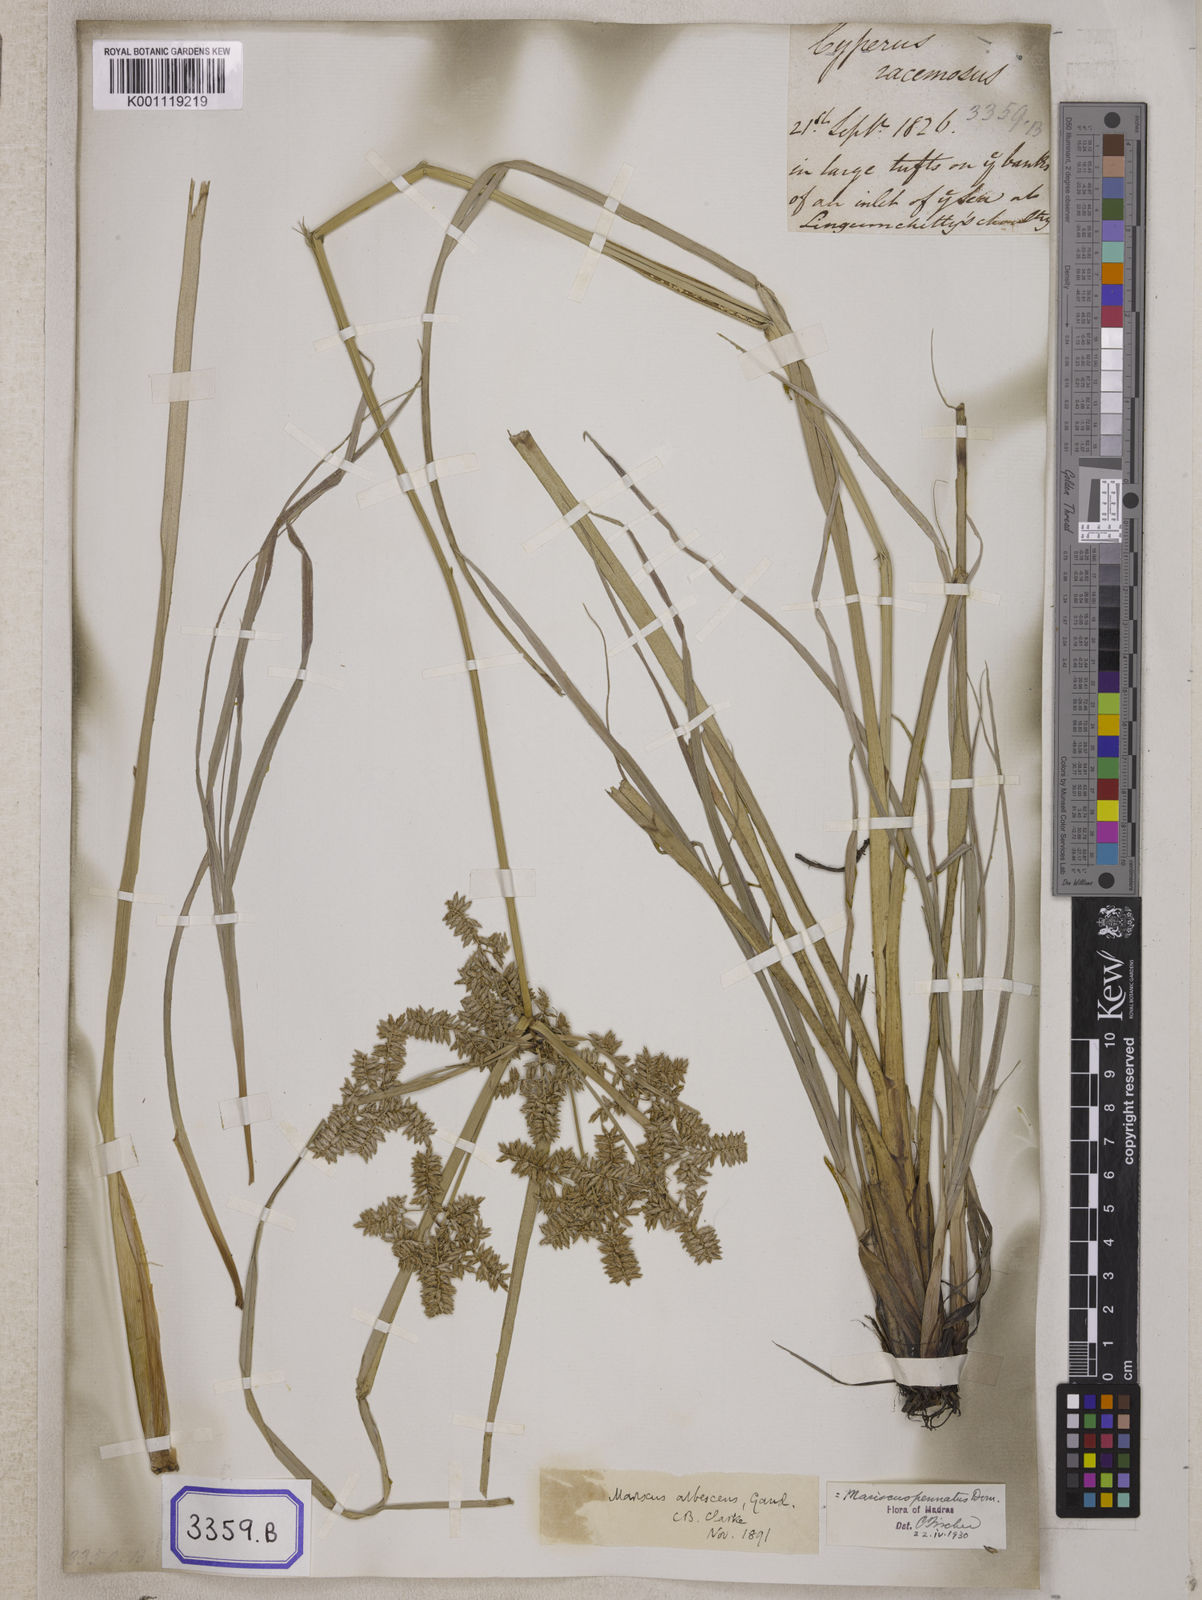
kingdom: Plantae
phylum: Tracheophyta
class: Liliopsida
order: Poales
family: Cyperaceae
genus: Cyperus
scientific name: Cyperus
